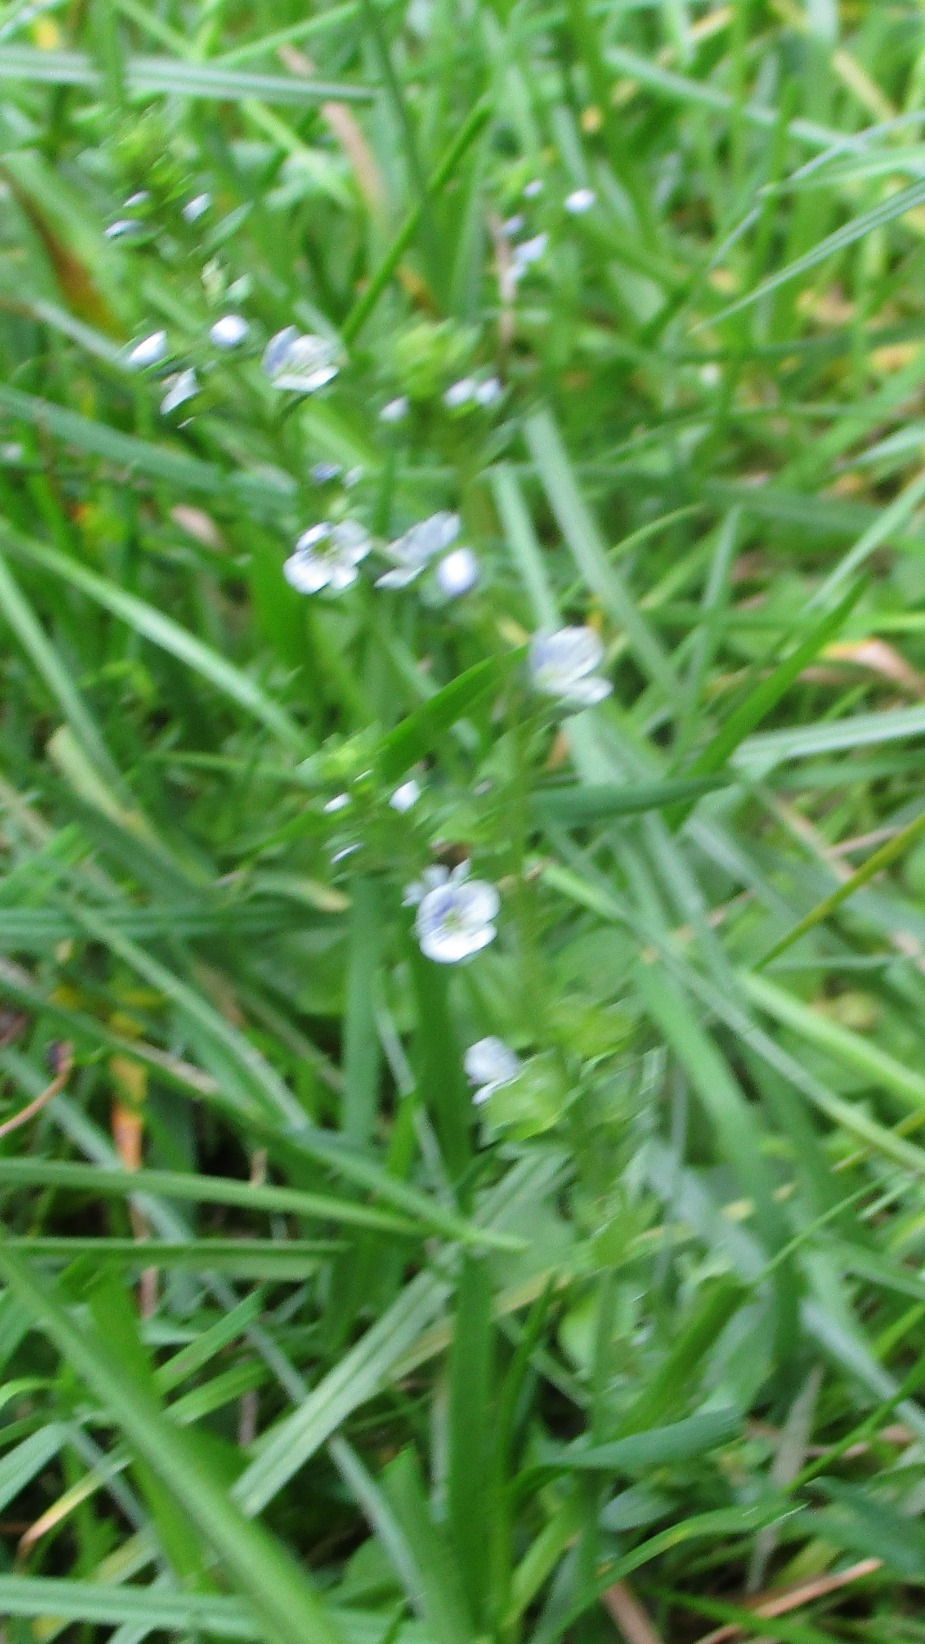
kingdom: Plantae
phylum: Tracheophyta
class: Magnoliopsida
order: Lamiales
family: Plantaginaceae
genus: Veronica
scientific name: Veronica serpyllifolia
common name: Glat ærenpris
